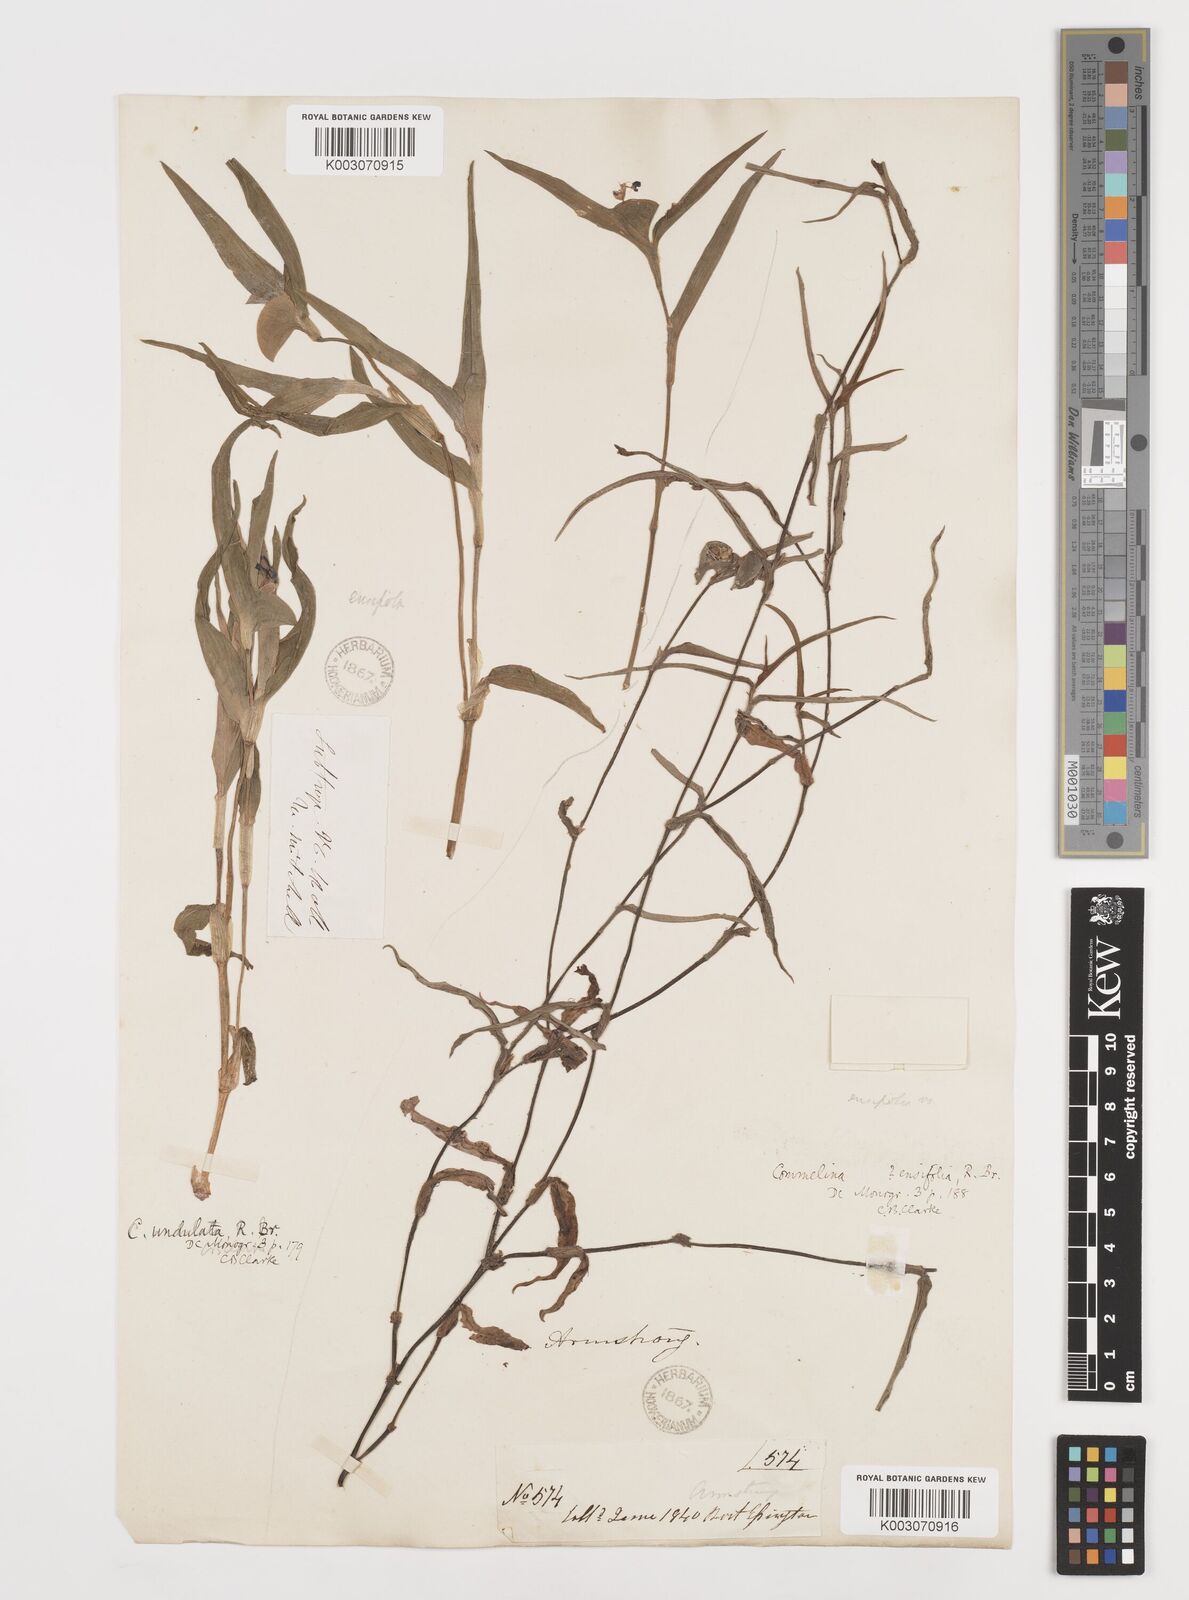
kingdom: Plantae
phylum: Tracheophyta
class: Liliopsida
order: Commelinales
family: Commelinaceae
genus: Commelina
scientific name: Commelina ensifolia
